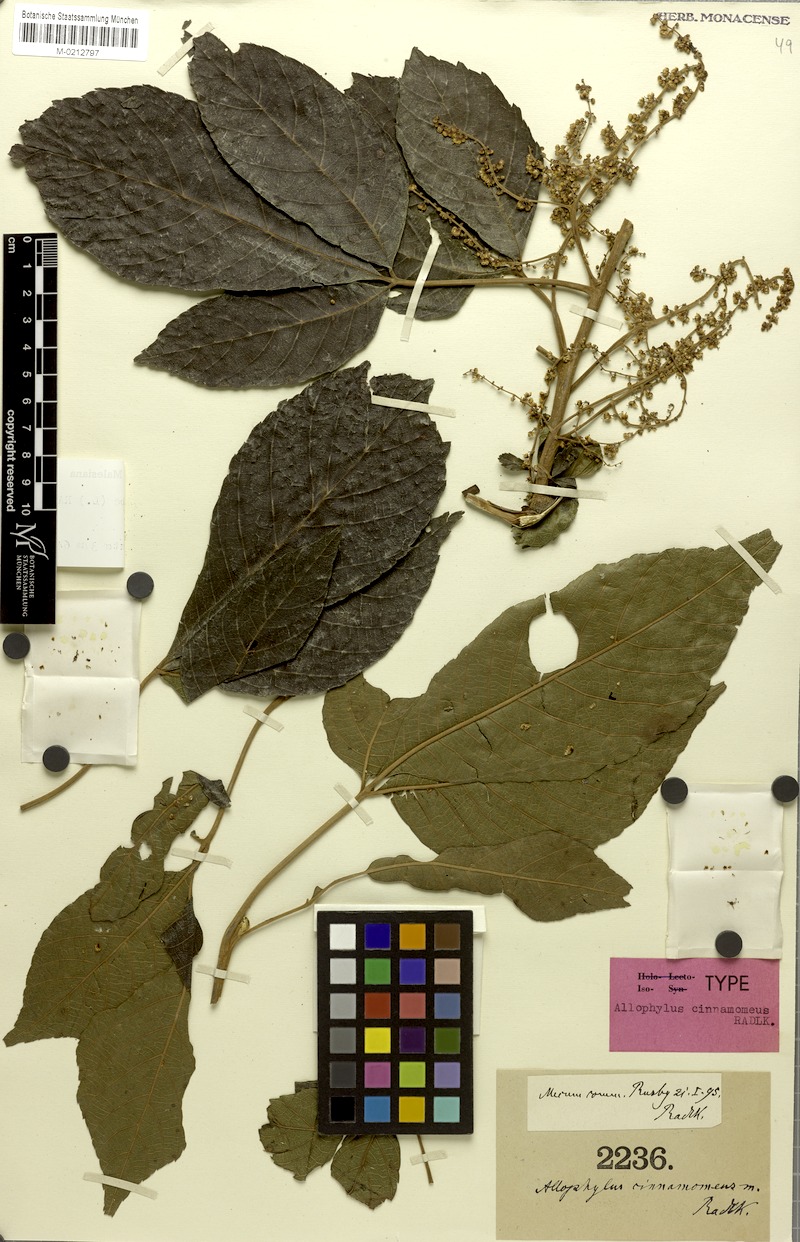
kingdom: Plantae
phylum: Tracheophyta
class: Magnoliopsida
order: Sapindales
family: Sapindaceae
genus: Allophylus
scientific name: Allophylus cinnamomeus
